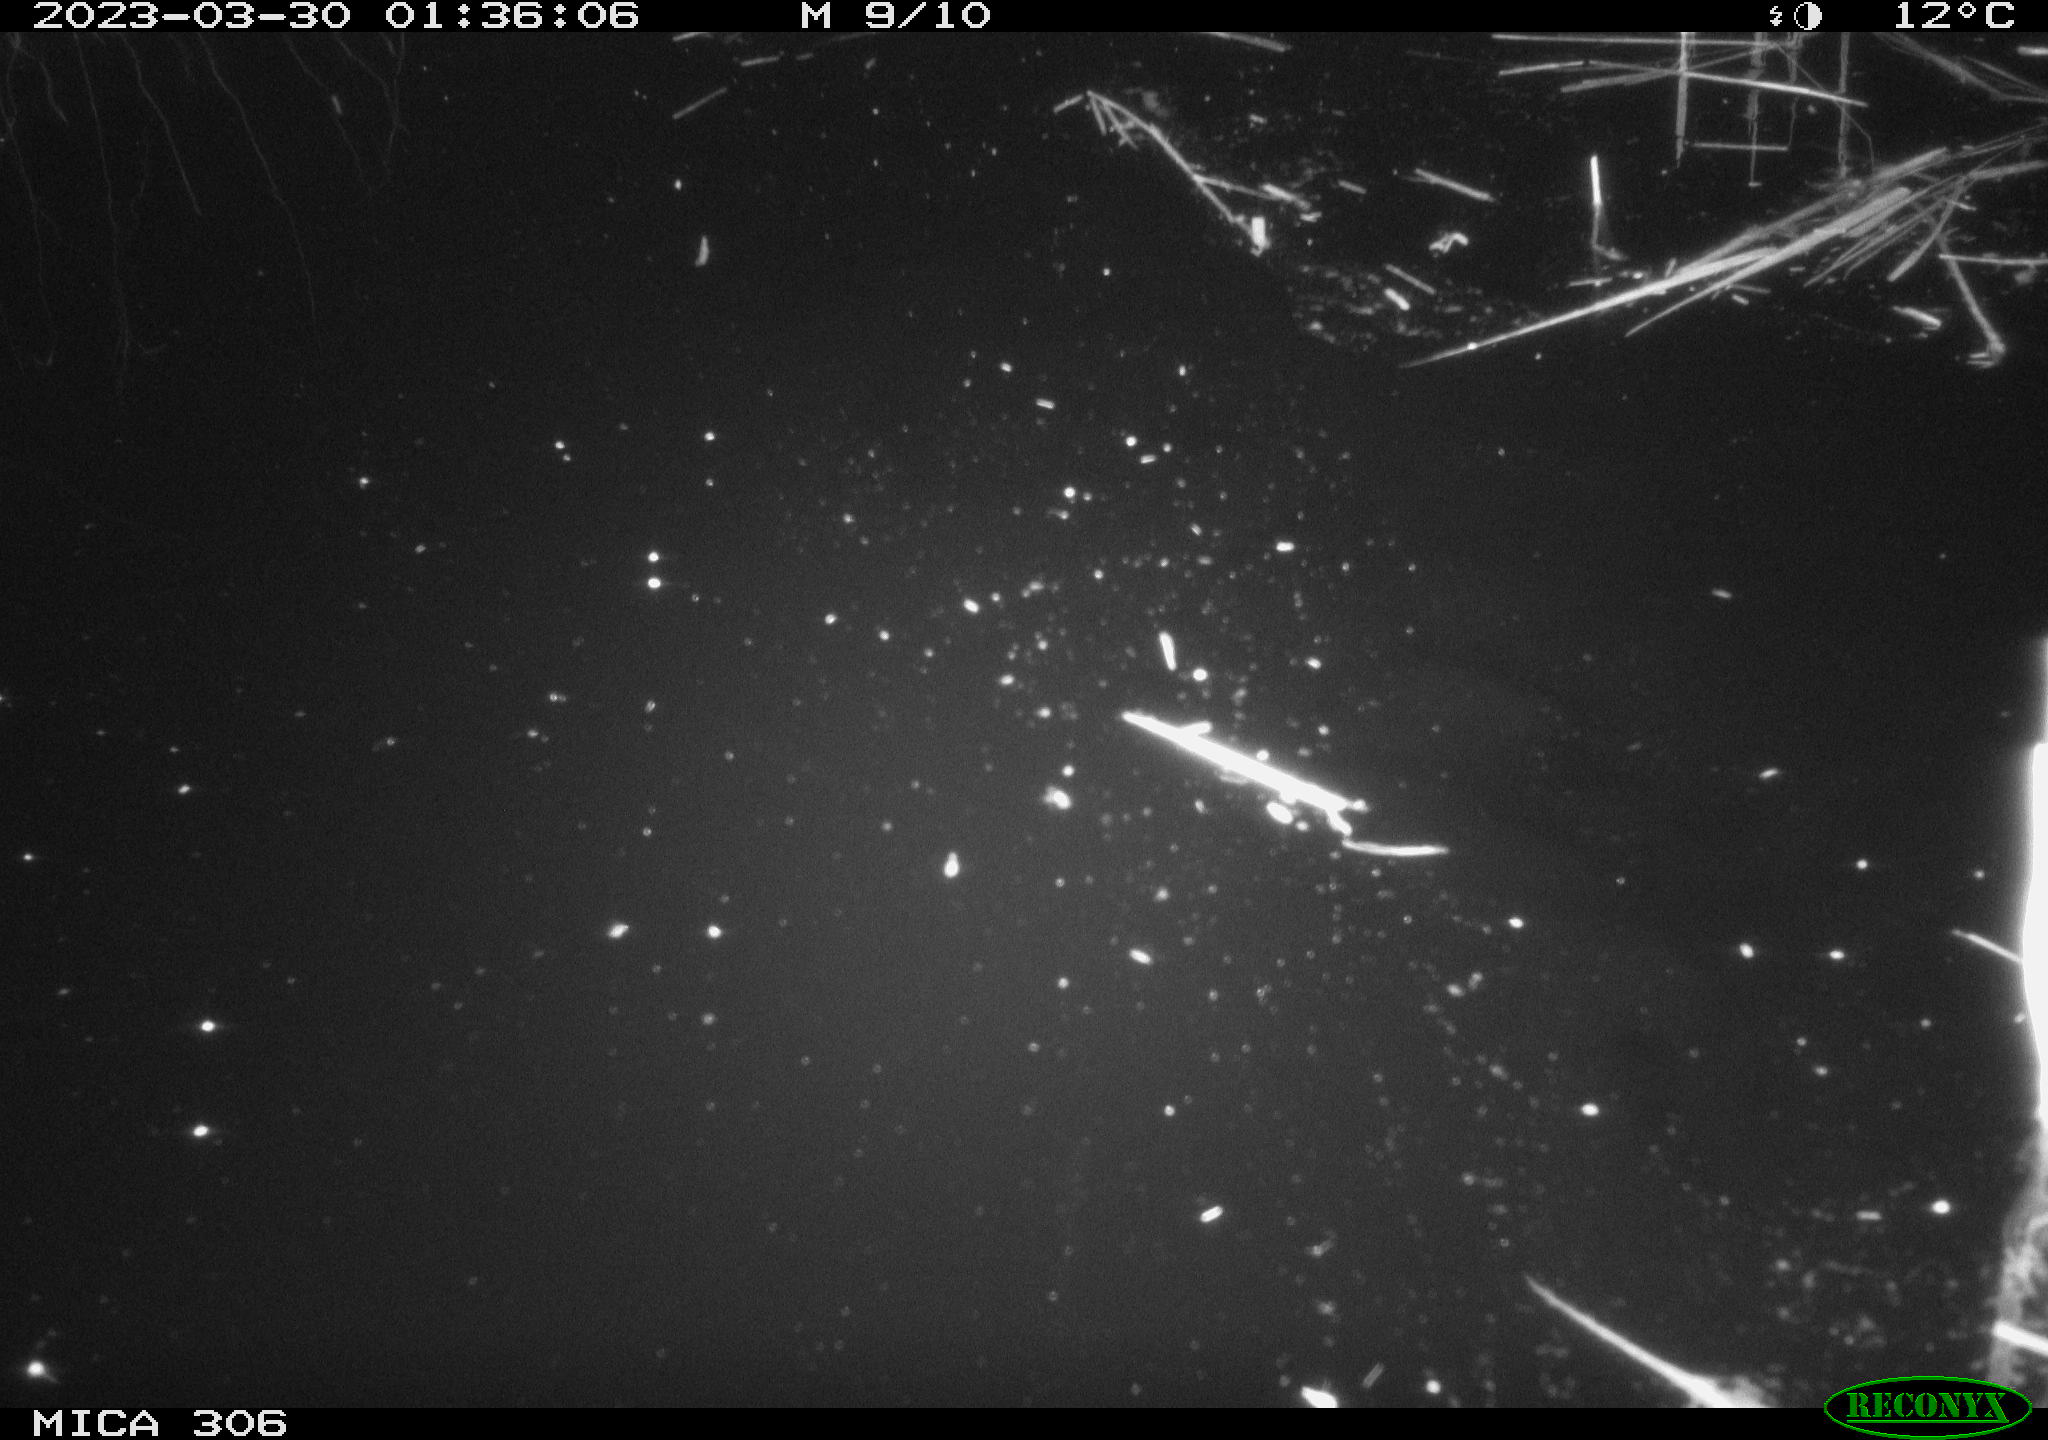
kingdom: Animalia
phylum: Chordata
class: Aves
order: Anseriformes
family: Anatidae
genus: Anas
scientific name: Anas
